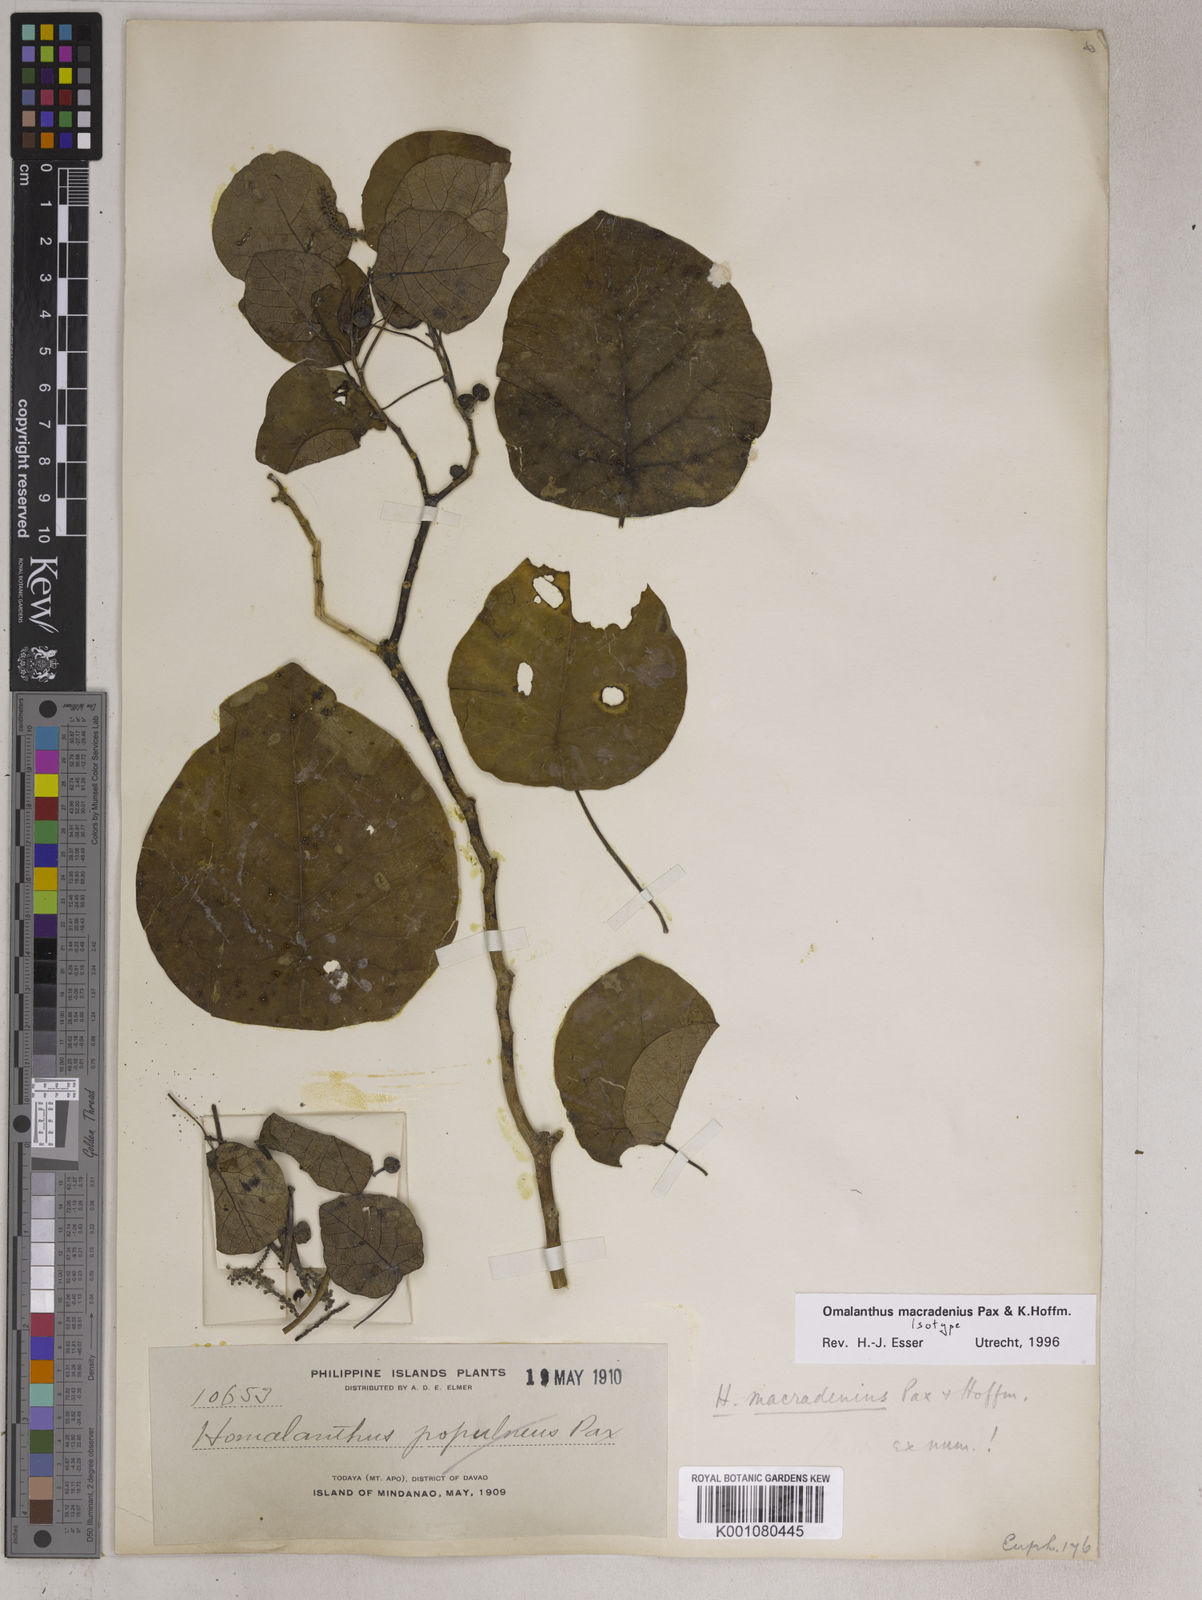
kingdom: Plantae
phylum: Tracheophyta
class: Magnoliopsida
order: Malpighiales
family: Euphorbiaceae
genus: Homalanthus
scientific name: Homalanthus macradenius
